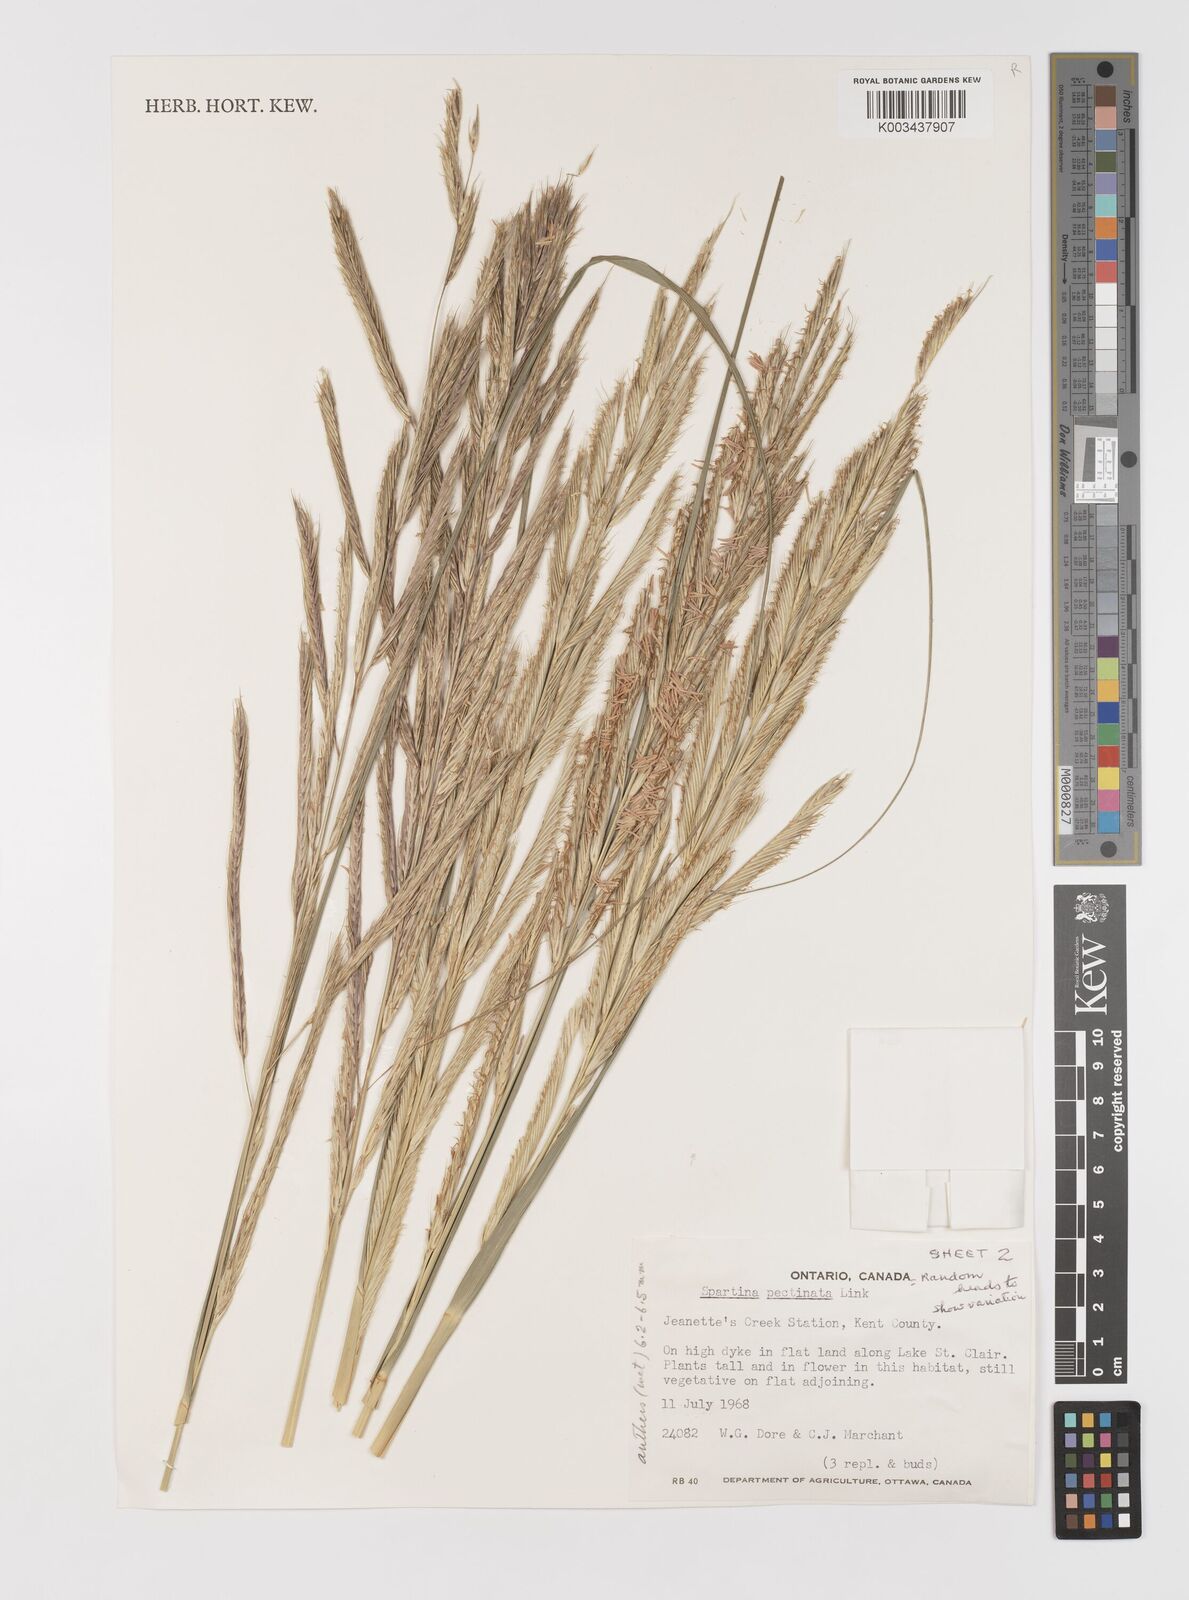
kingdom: Plantae
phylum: Tracheophyta
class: Liliopsida
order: Poales
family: Poaceae
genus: Sporobolus
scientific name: Sporobolus michauxianus
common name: Freshwater cordgrass
